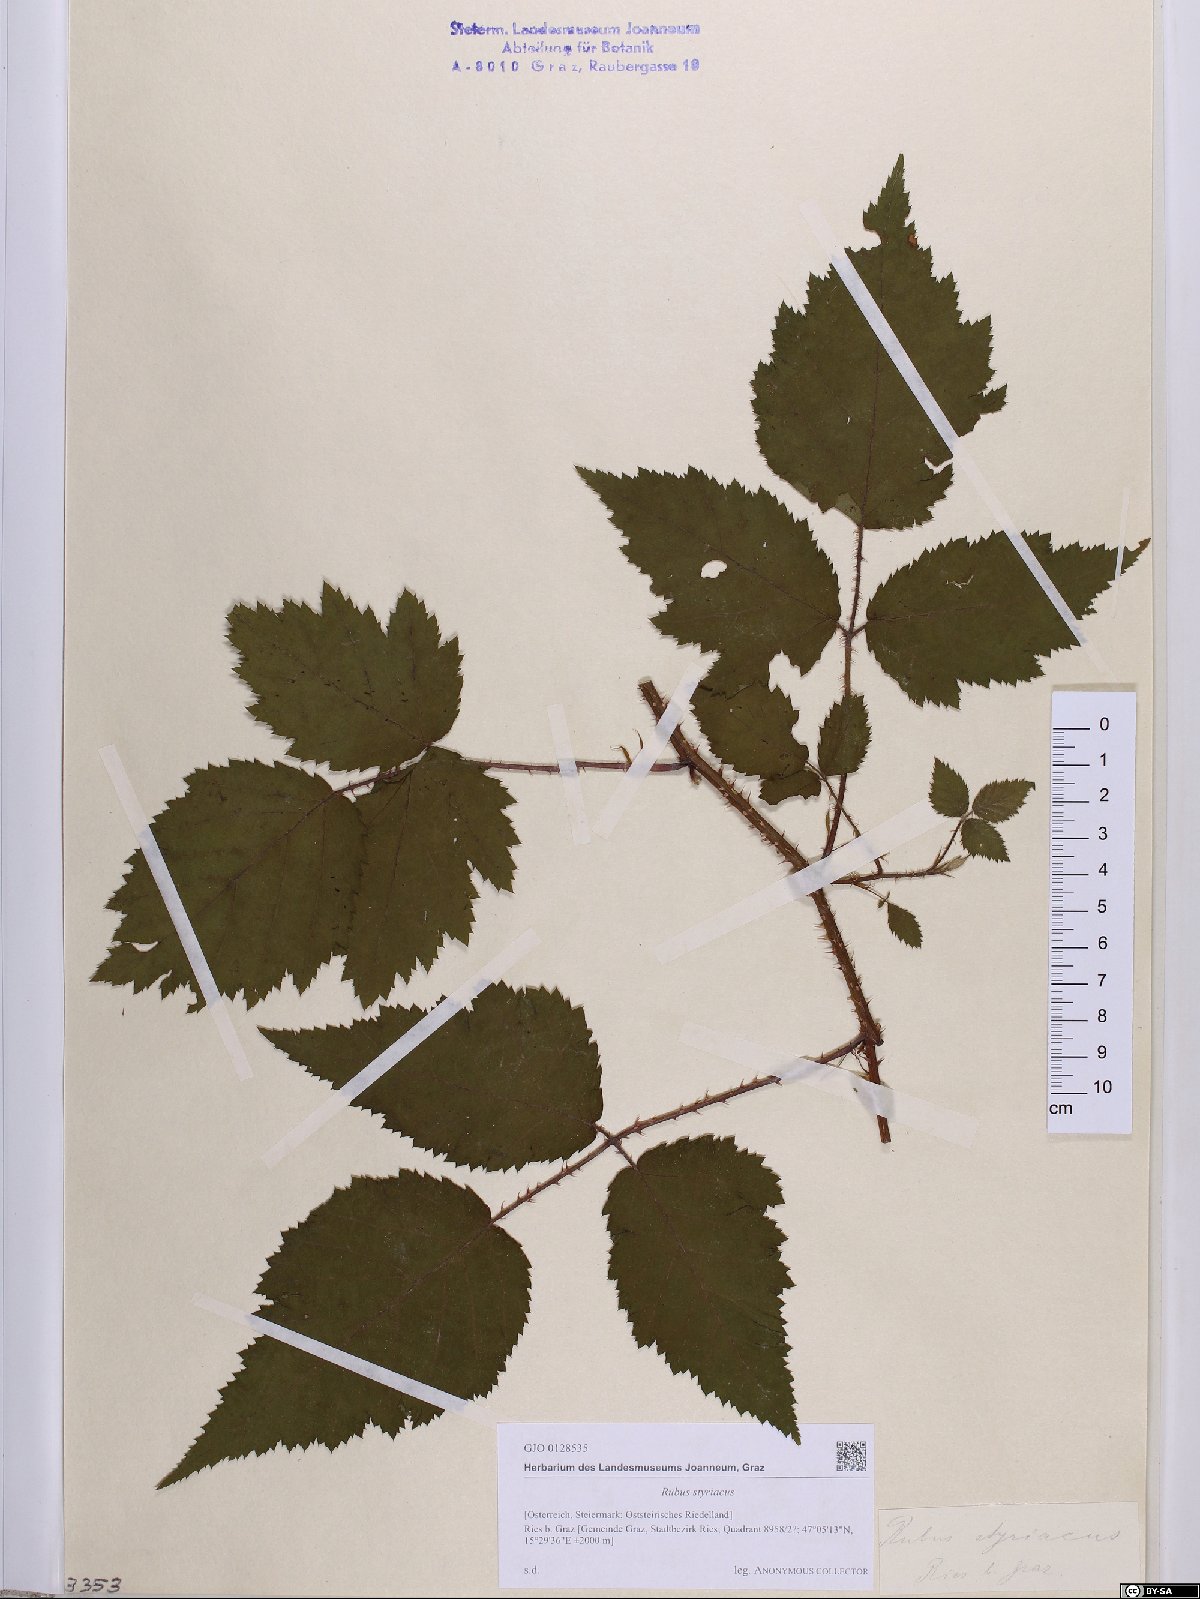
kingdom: Plantae
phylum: Tracheophyta
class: Magnoliopsida
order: Rosales
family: Rosaceae
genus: Rubus
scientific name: Rubus styriacus
